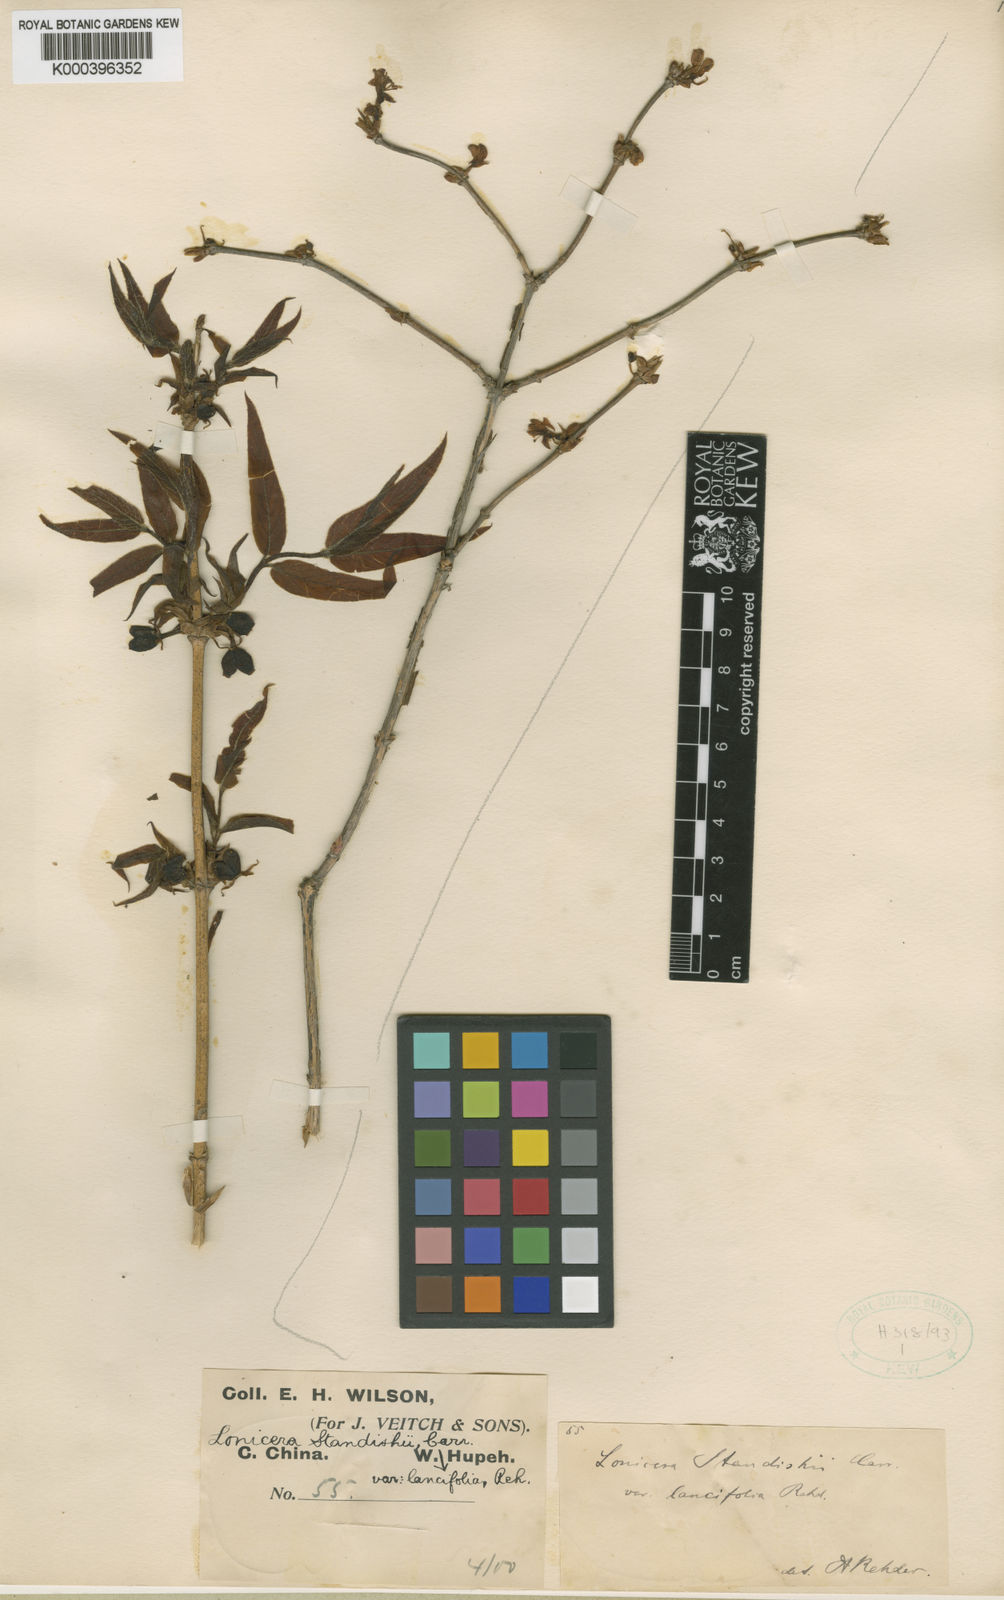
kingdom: Plantae
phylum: Tracheophyta
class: Magnoliopsida
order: Dipsacales
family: Caprifoliaceae
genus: Lonicera
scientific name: Lonicera
